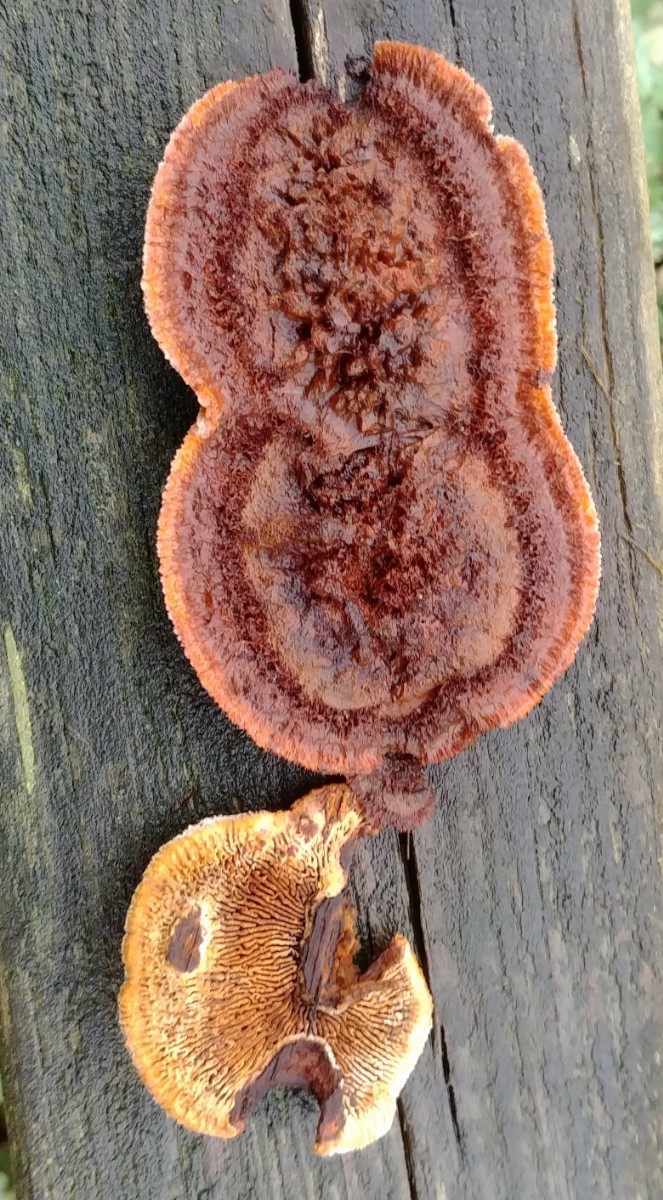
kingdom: Fungi
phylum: Basidiomycota
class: Agaricomycetes
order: Gloeophyllales
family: Gloeophyllaceae
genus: Gloeophyllum
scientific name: Gloeophyllum sepiarium
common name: fyrre-korkhat
